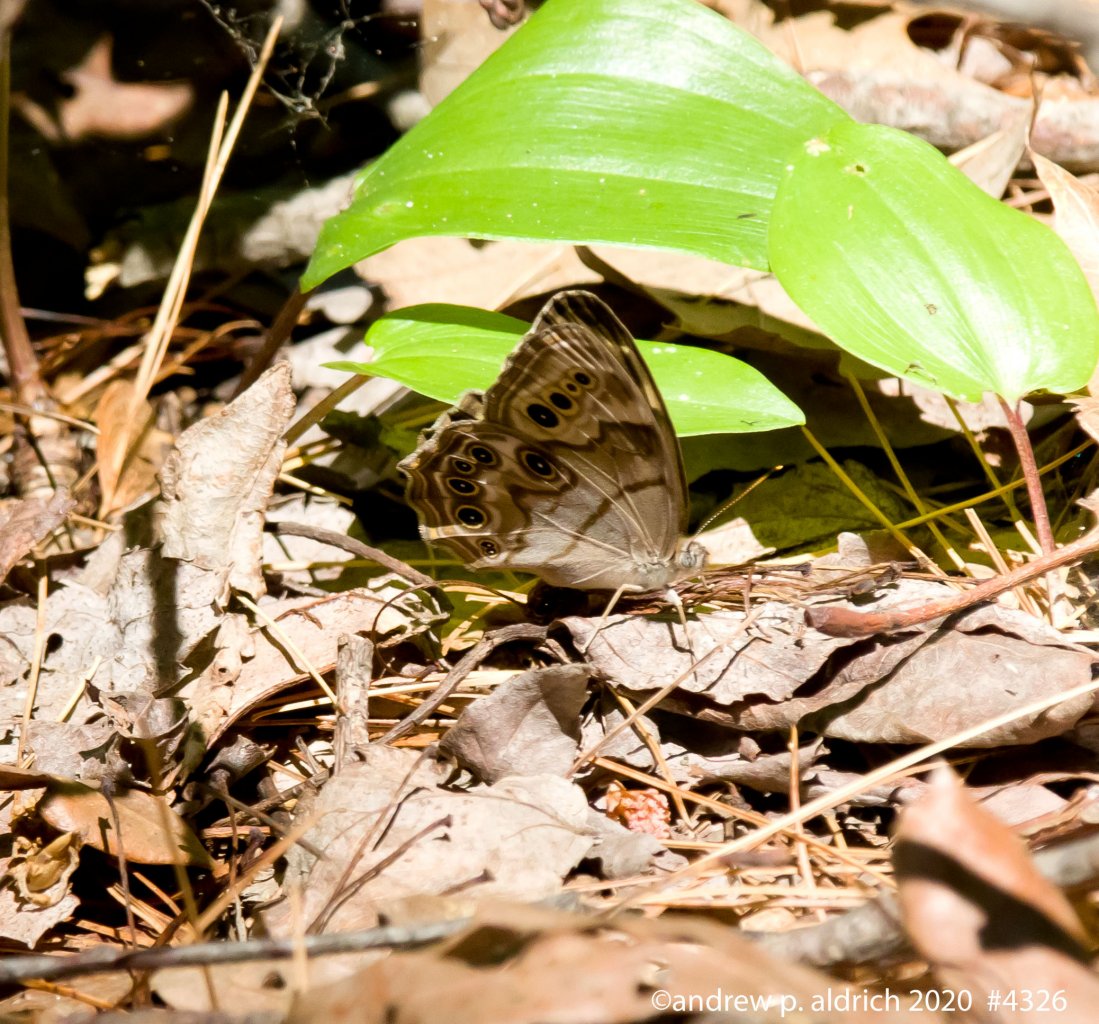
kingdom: Animalia
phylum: Arthropoda
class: Insecta
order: Lepidoptera
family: Nymphalidae
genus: Lethe
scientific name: Lethe anthedon
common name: Northern Pearly-Eye
